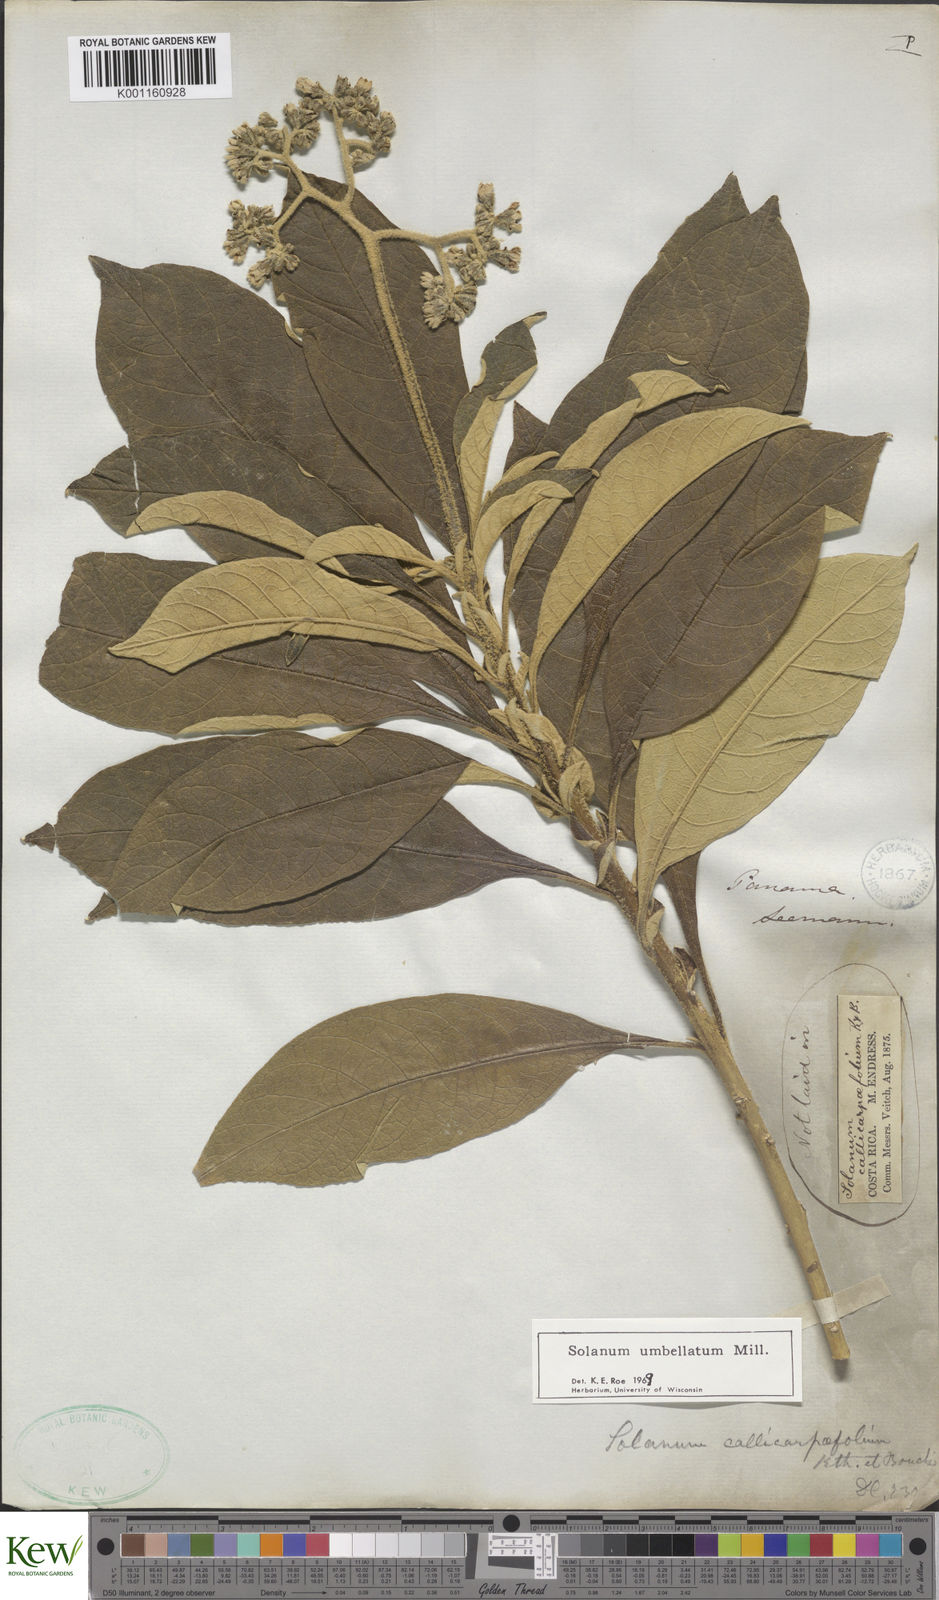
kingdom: Plantae
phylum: Tracheophyta
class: Magnoliopsida
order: Solanales
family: Solanaceae
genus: Solanum
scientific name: Solanum umbellatum
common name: Nightshade
